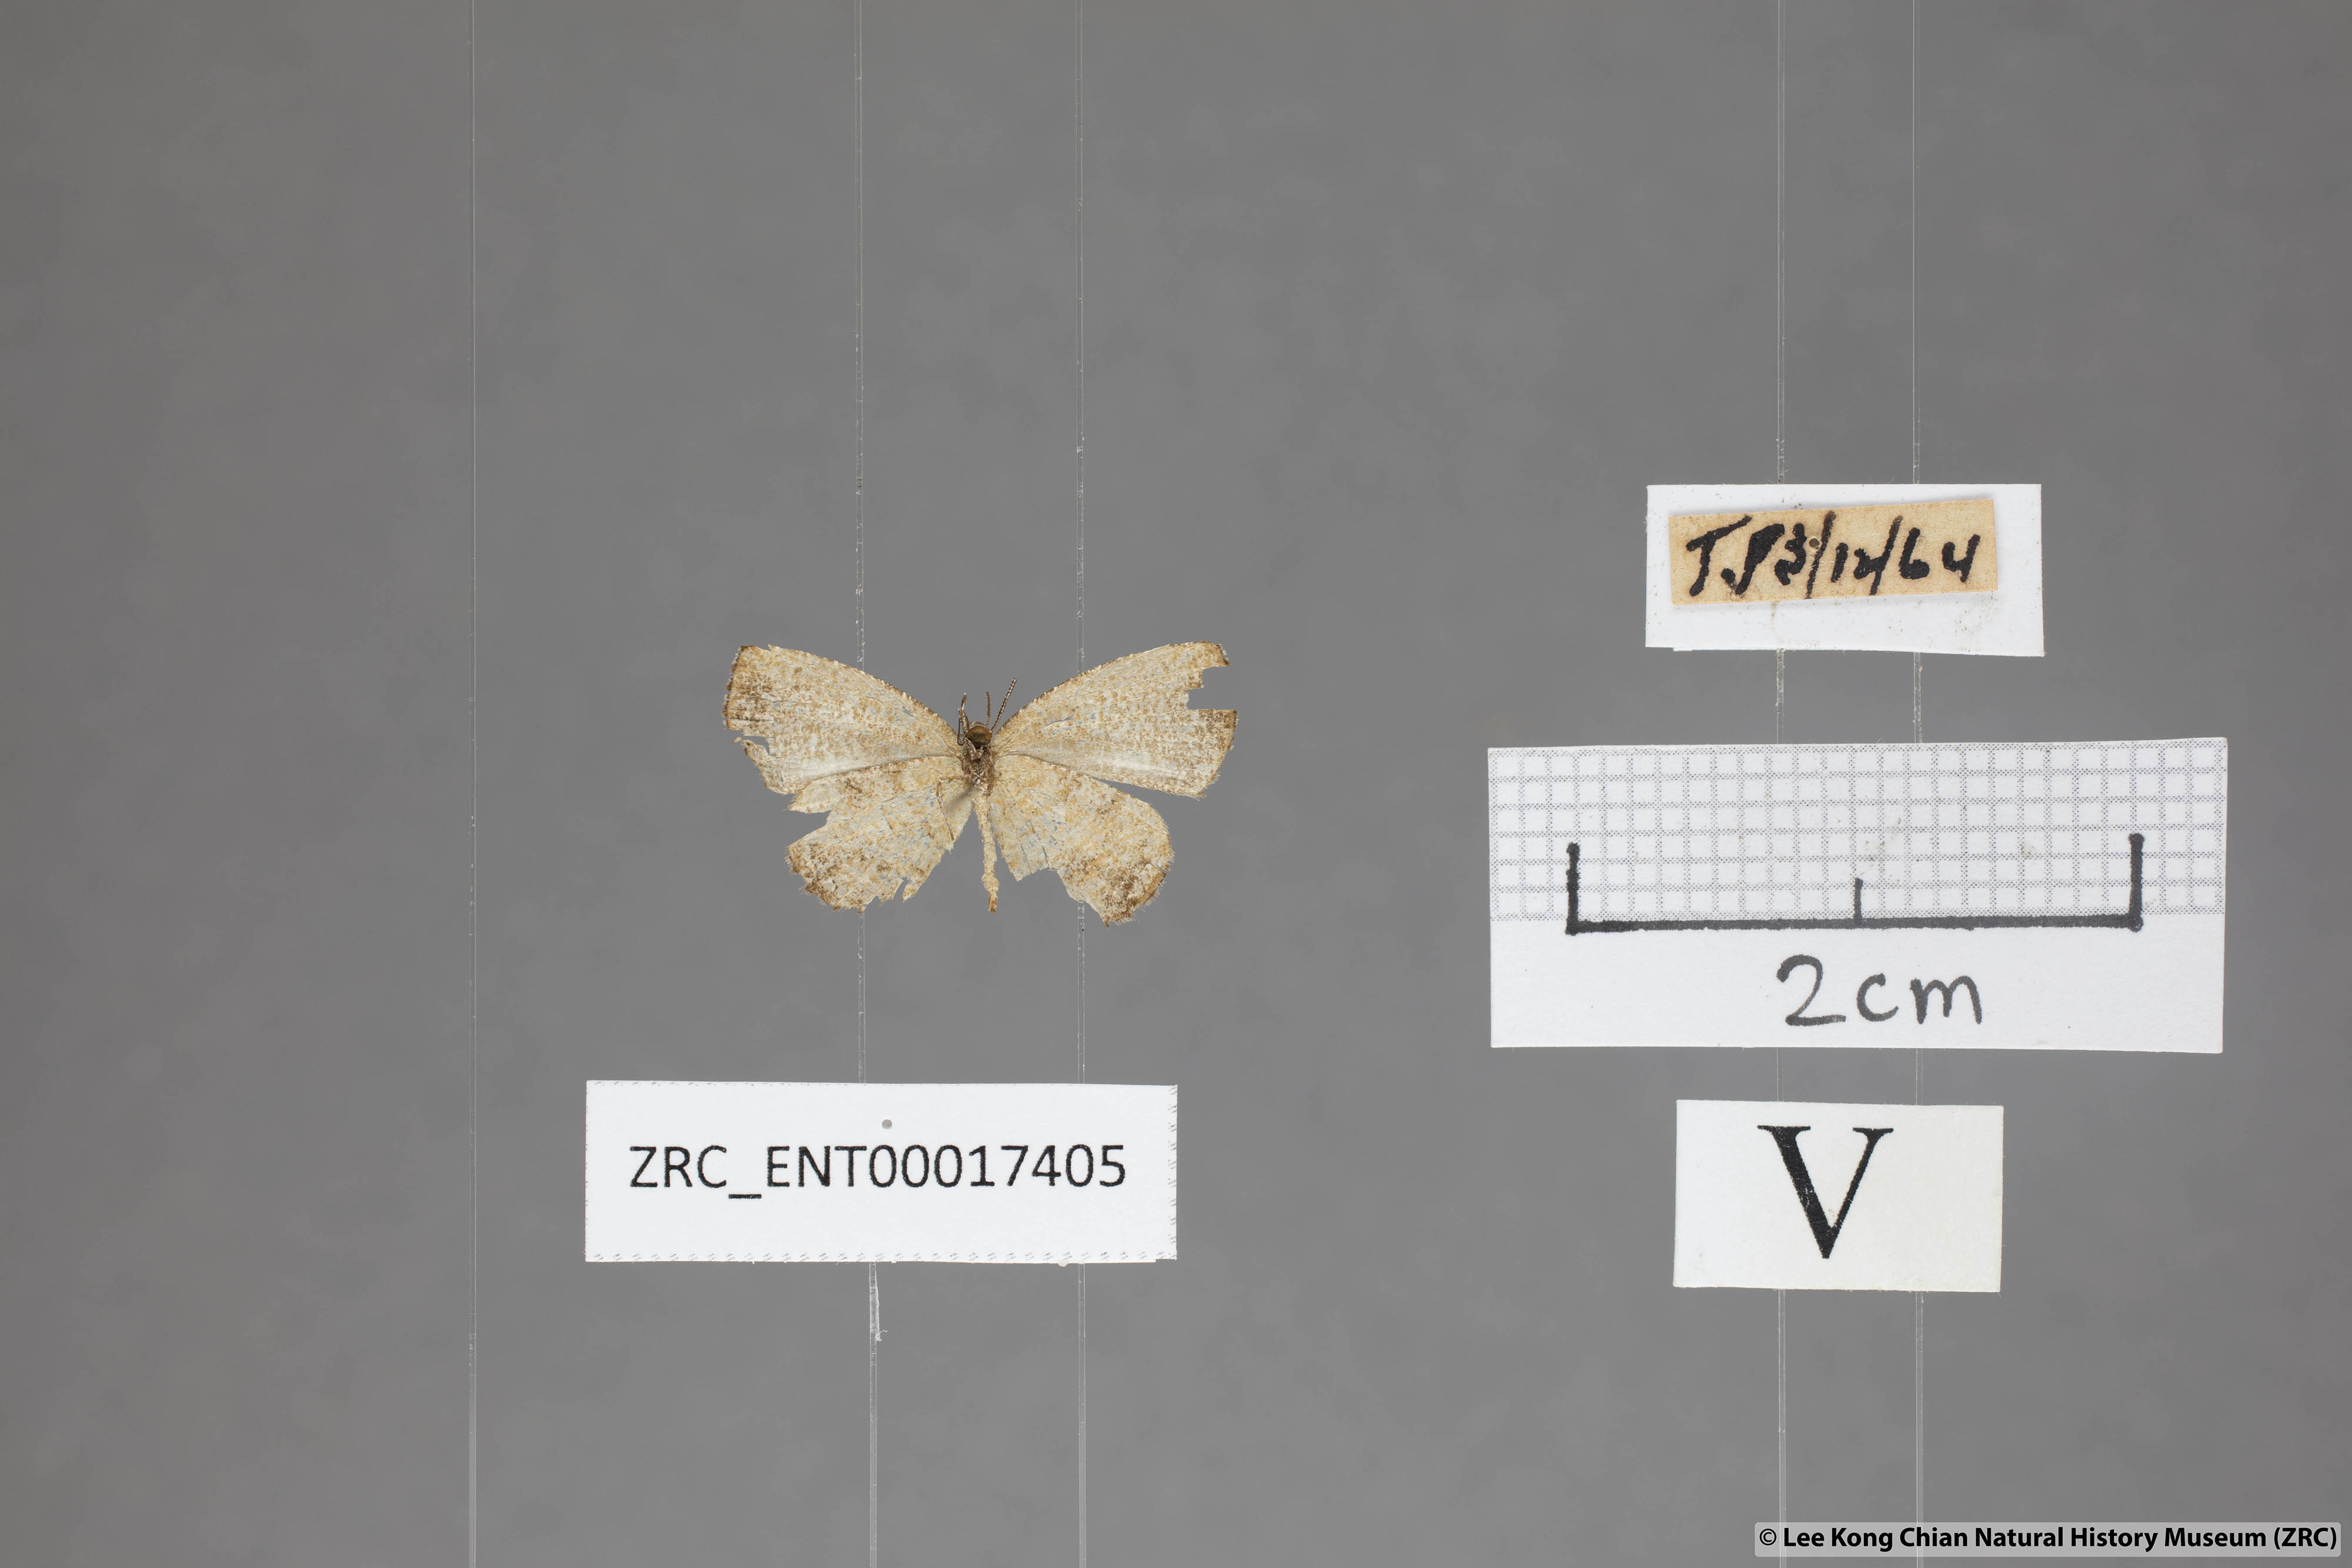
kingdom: Animalia
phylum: Arthropoda
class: Insecta
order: Lepidoptera
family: Lycaenidae
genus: Logania
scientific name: Logania distanti
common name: Dark mottle
